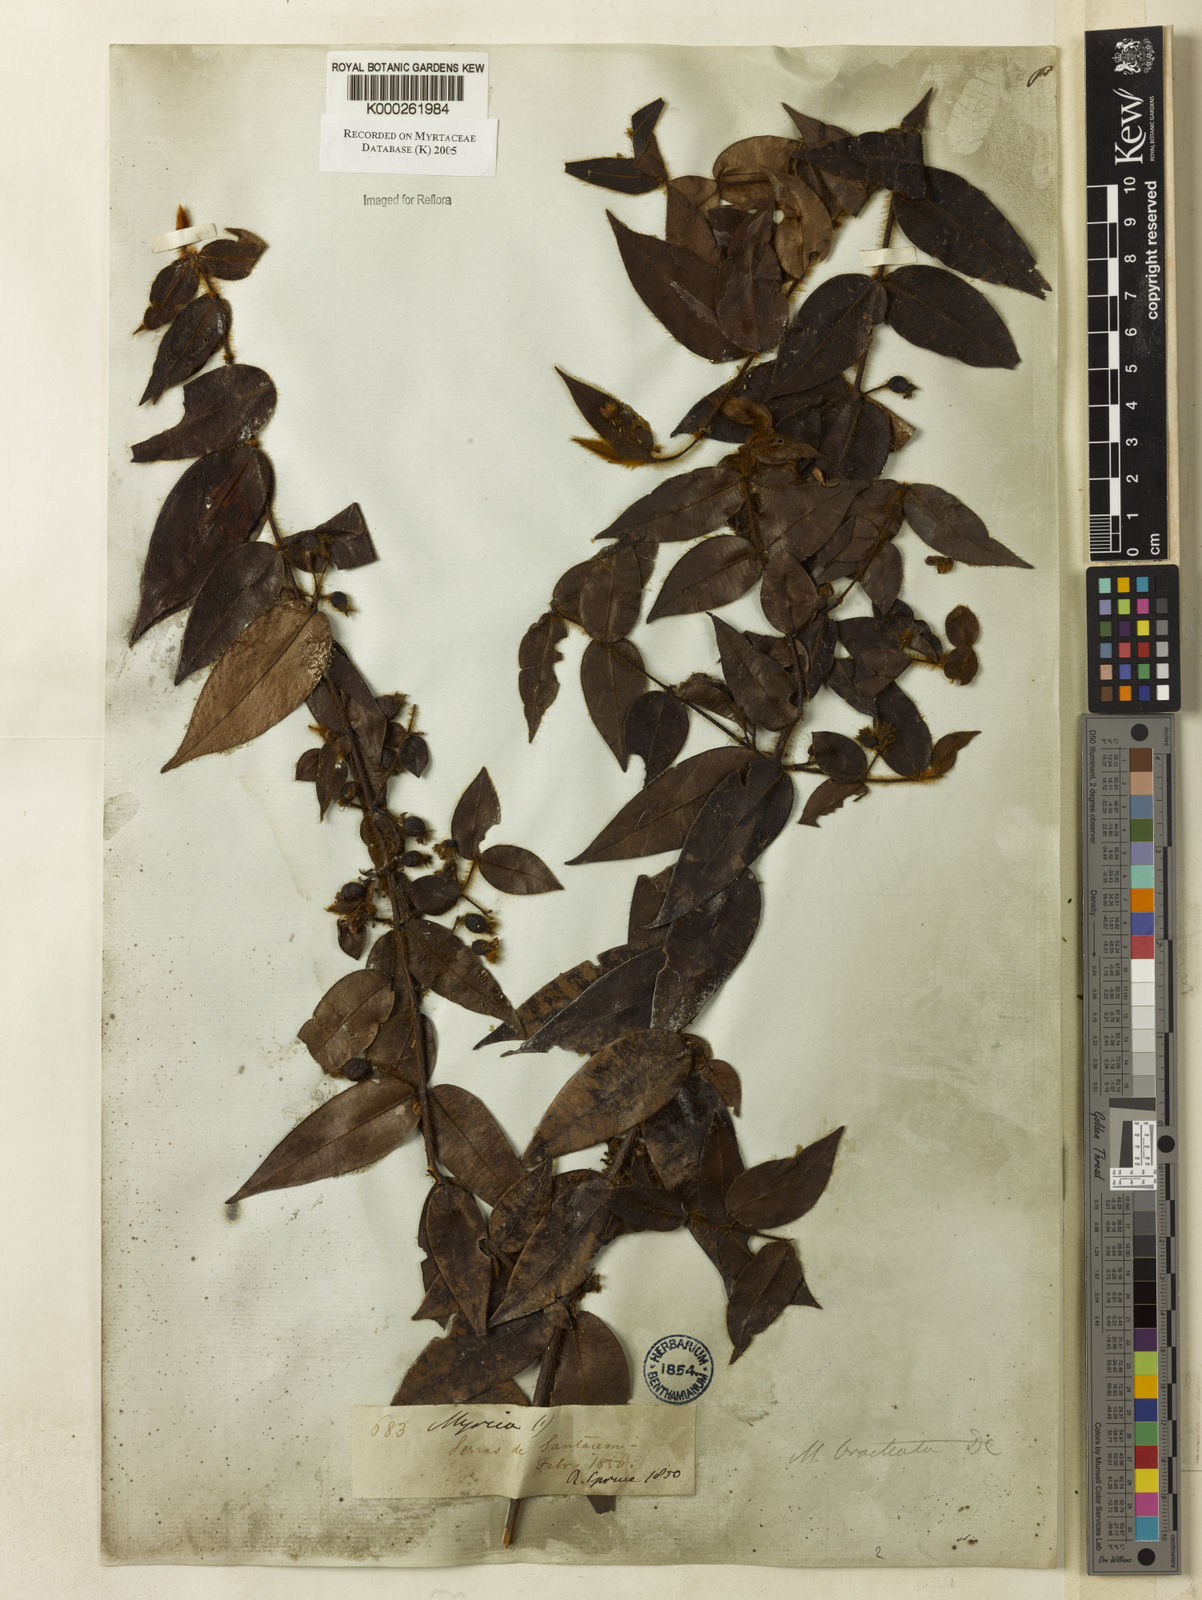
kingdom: Plantae
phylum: Tracheophyta
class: Magnoliopsida
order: Myrtales
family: Myrtaceae
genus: Myrcia
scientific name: Myrcia bracteata
